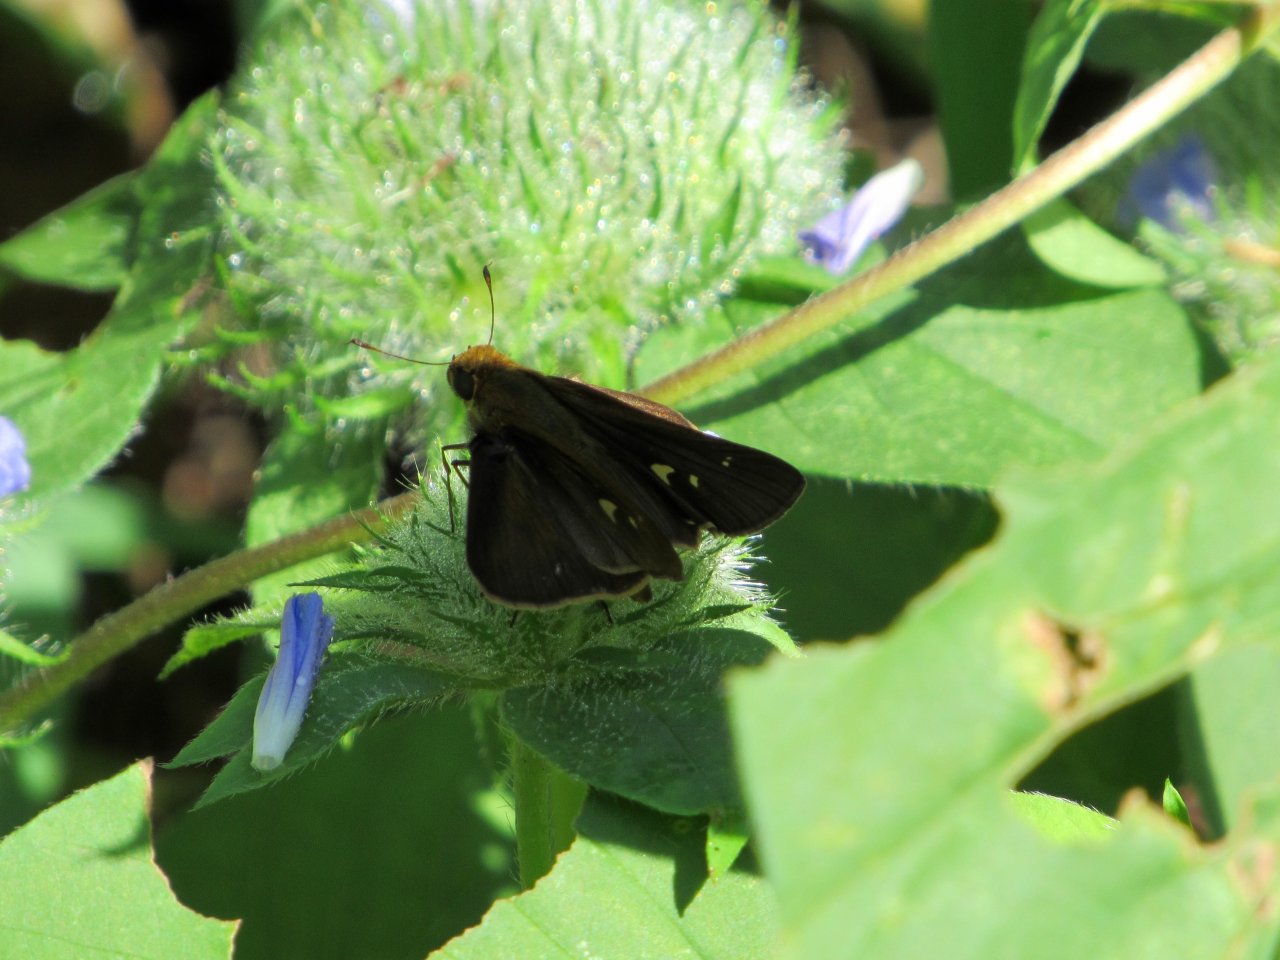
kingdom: Animalia
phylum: Arthropoda
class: Insecta
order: Lepidoptera
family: Hesperiidae
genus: Panoquina
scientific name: Panoquina ocola
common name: Ocola Skipper
